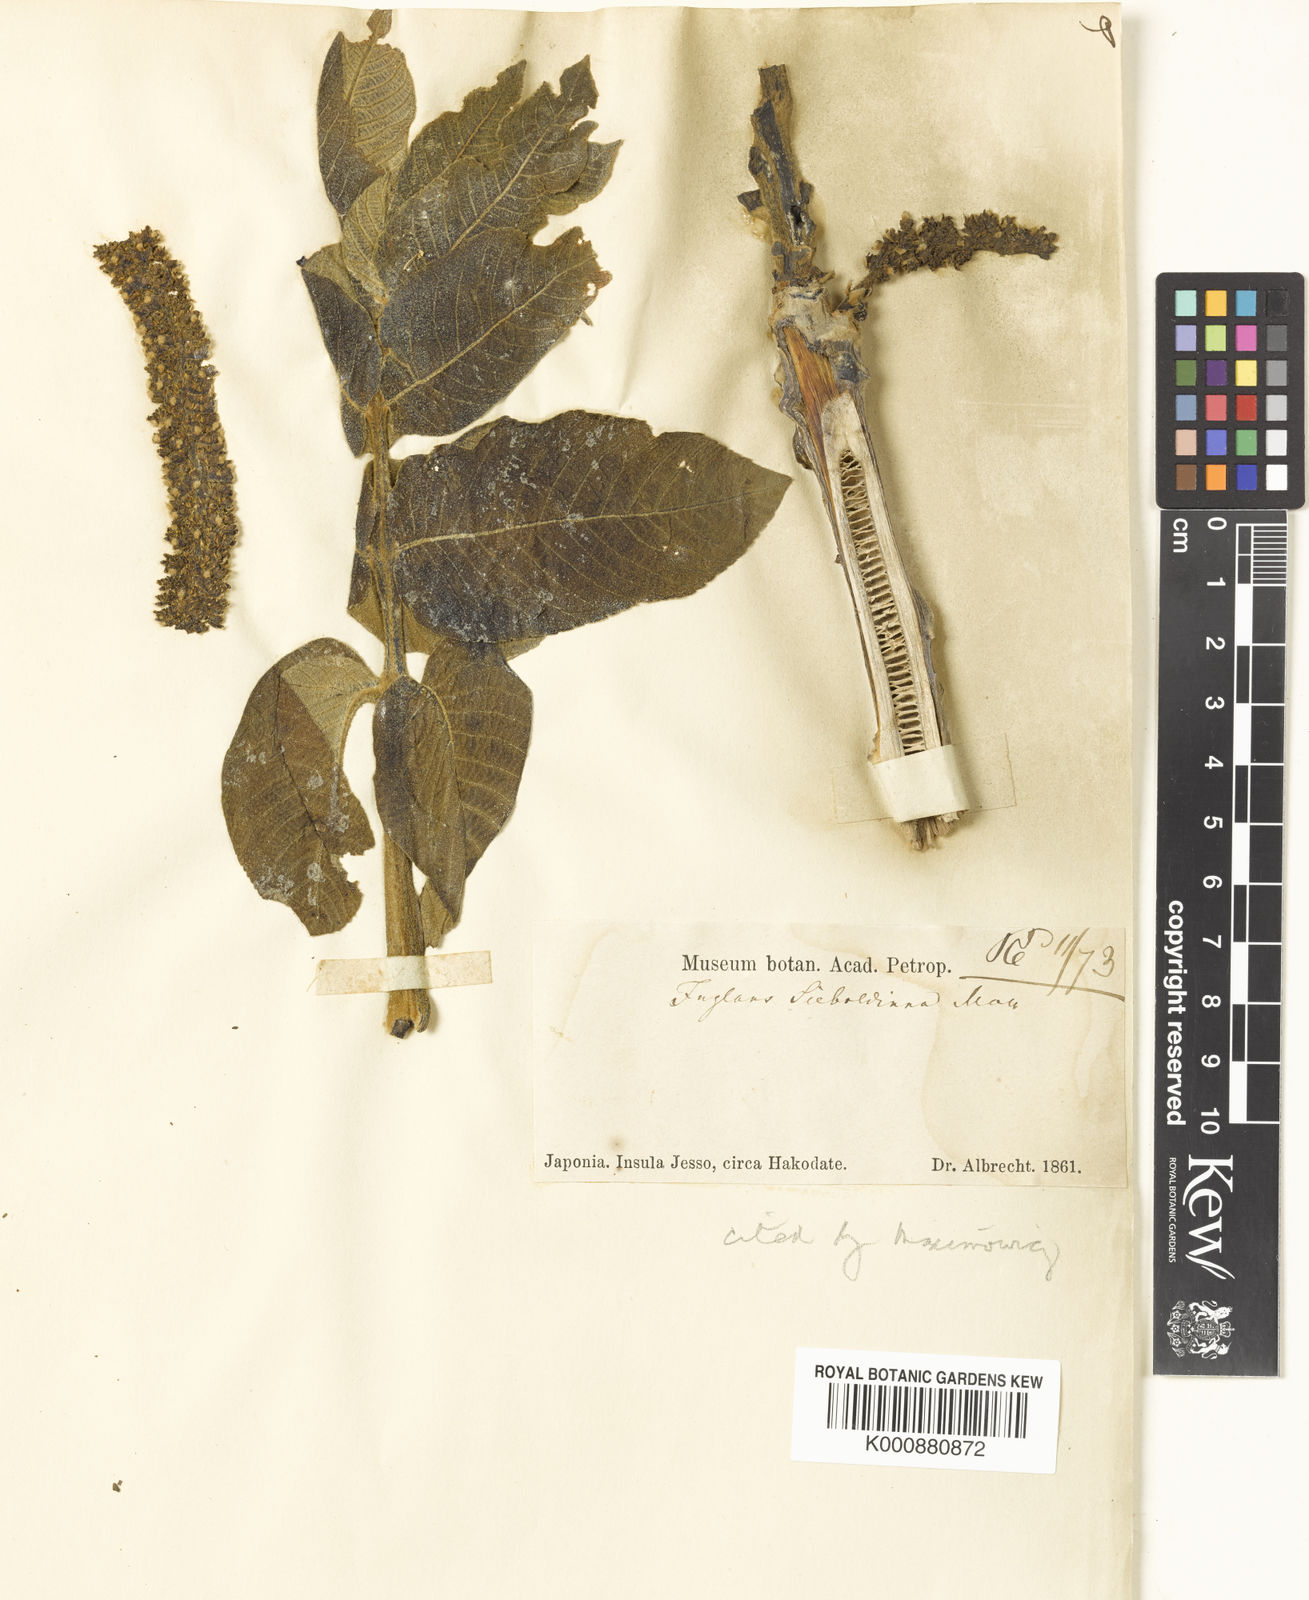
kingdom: Plantae
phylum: Tracheophyta
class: Magnoliopsida
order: Fagales
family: Juglandaceae
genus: Juglans
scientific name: Juglans
